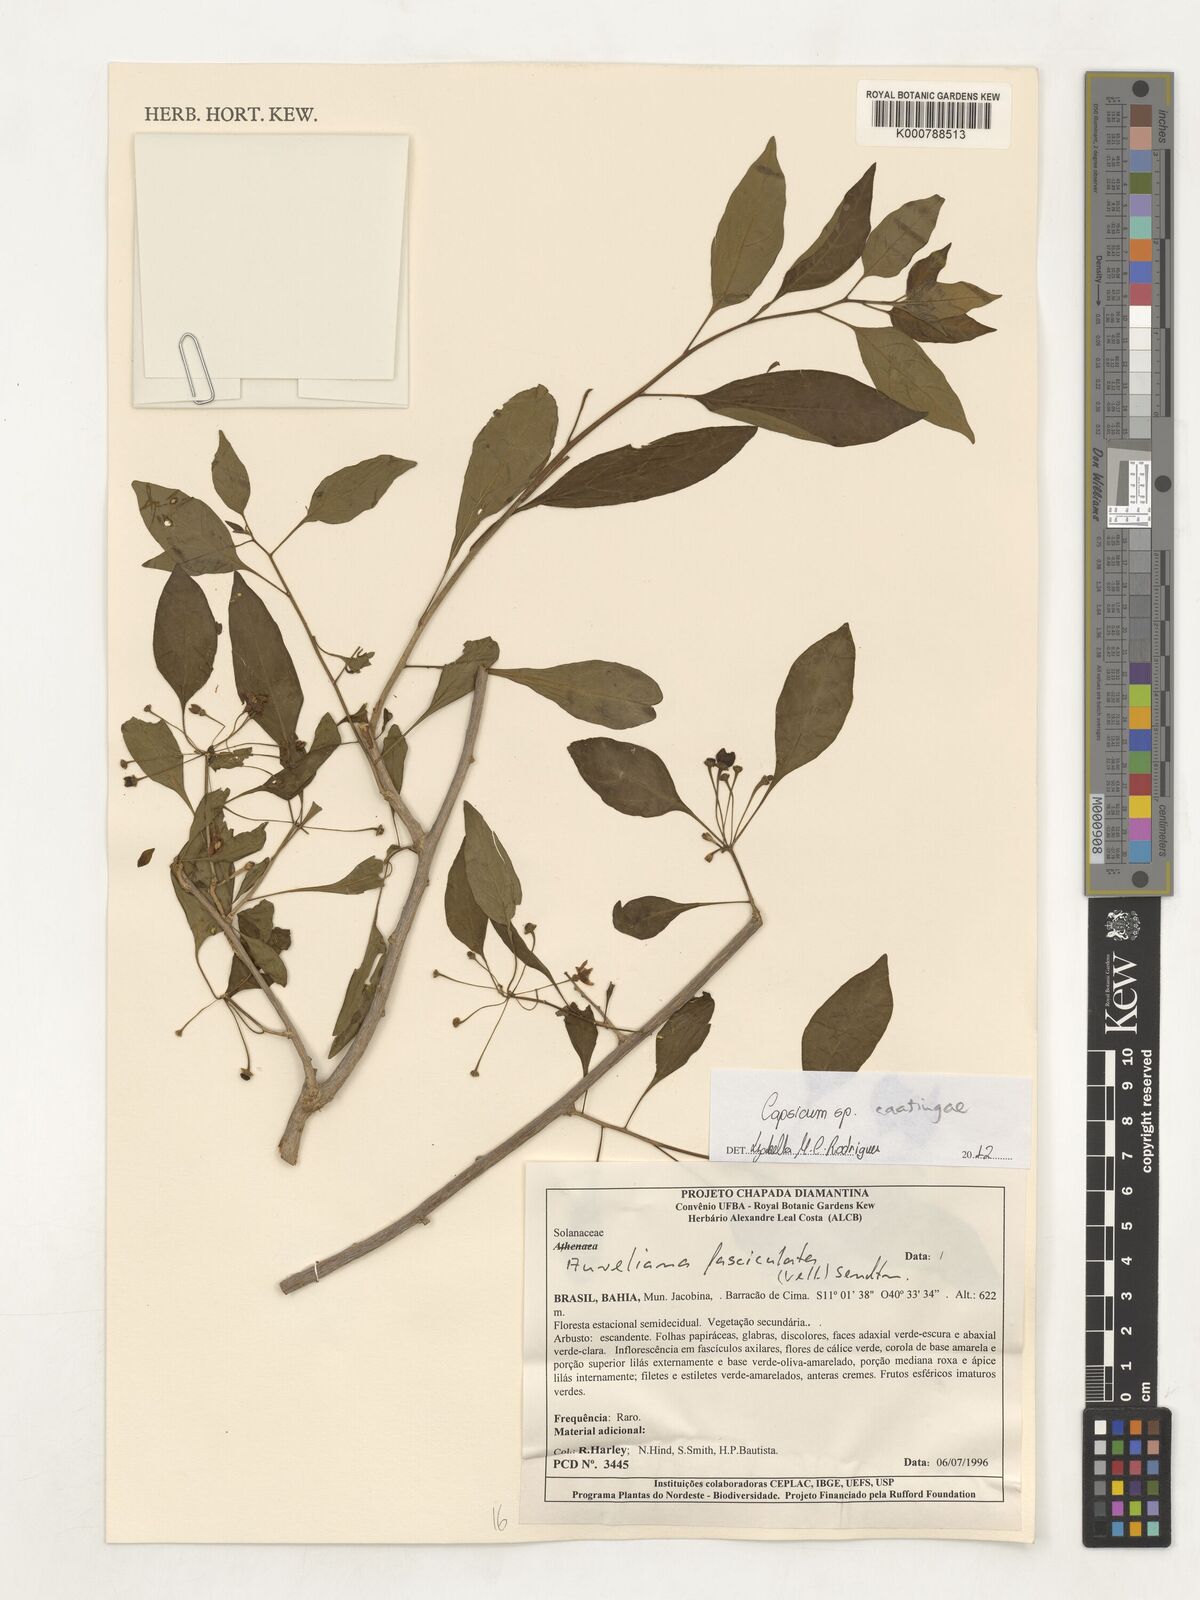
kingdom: Plantae
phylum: Tracheophyta
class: Magnoliopsida
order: Solanales
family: Solanaceae
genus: Capsicum
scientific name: Capsicum
